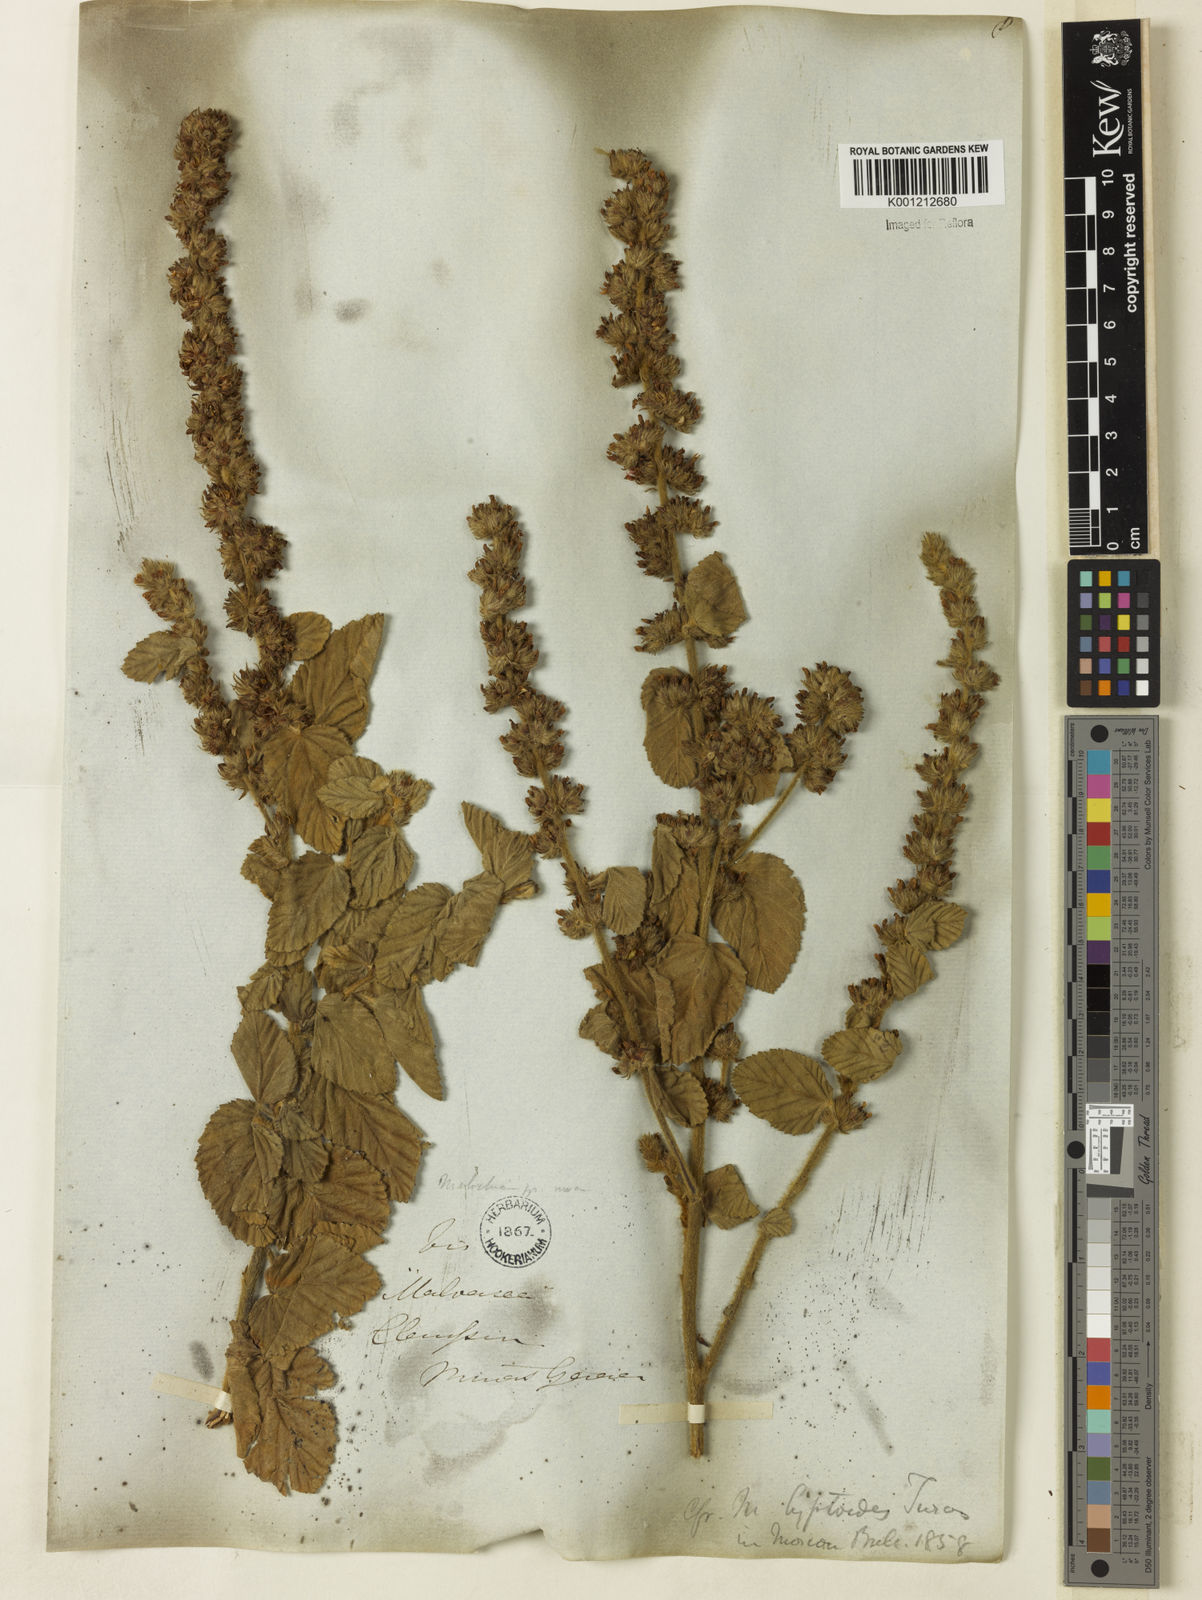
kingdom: Plantae
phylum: Tracheophyta
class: Magnoliopsida
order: Malvales
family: Malvaceae
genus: Melochia
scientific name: Melochia spicata
